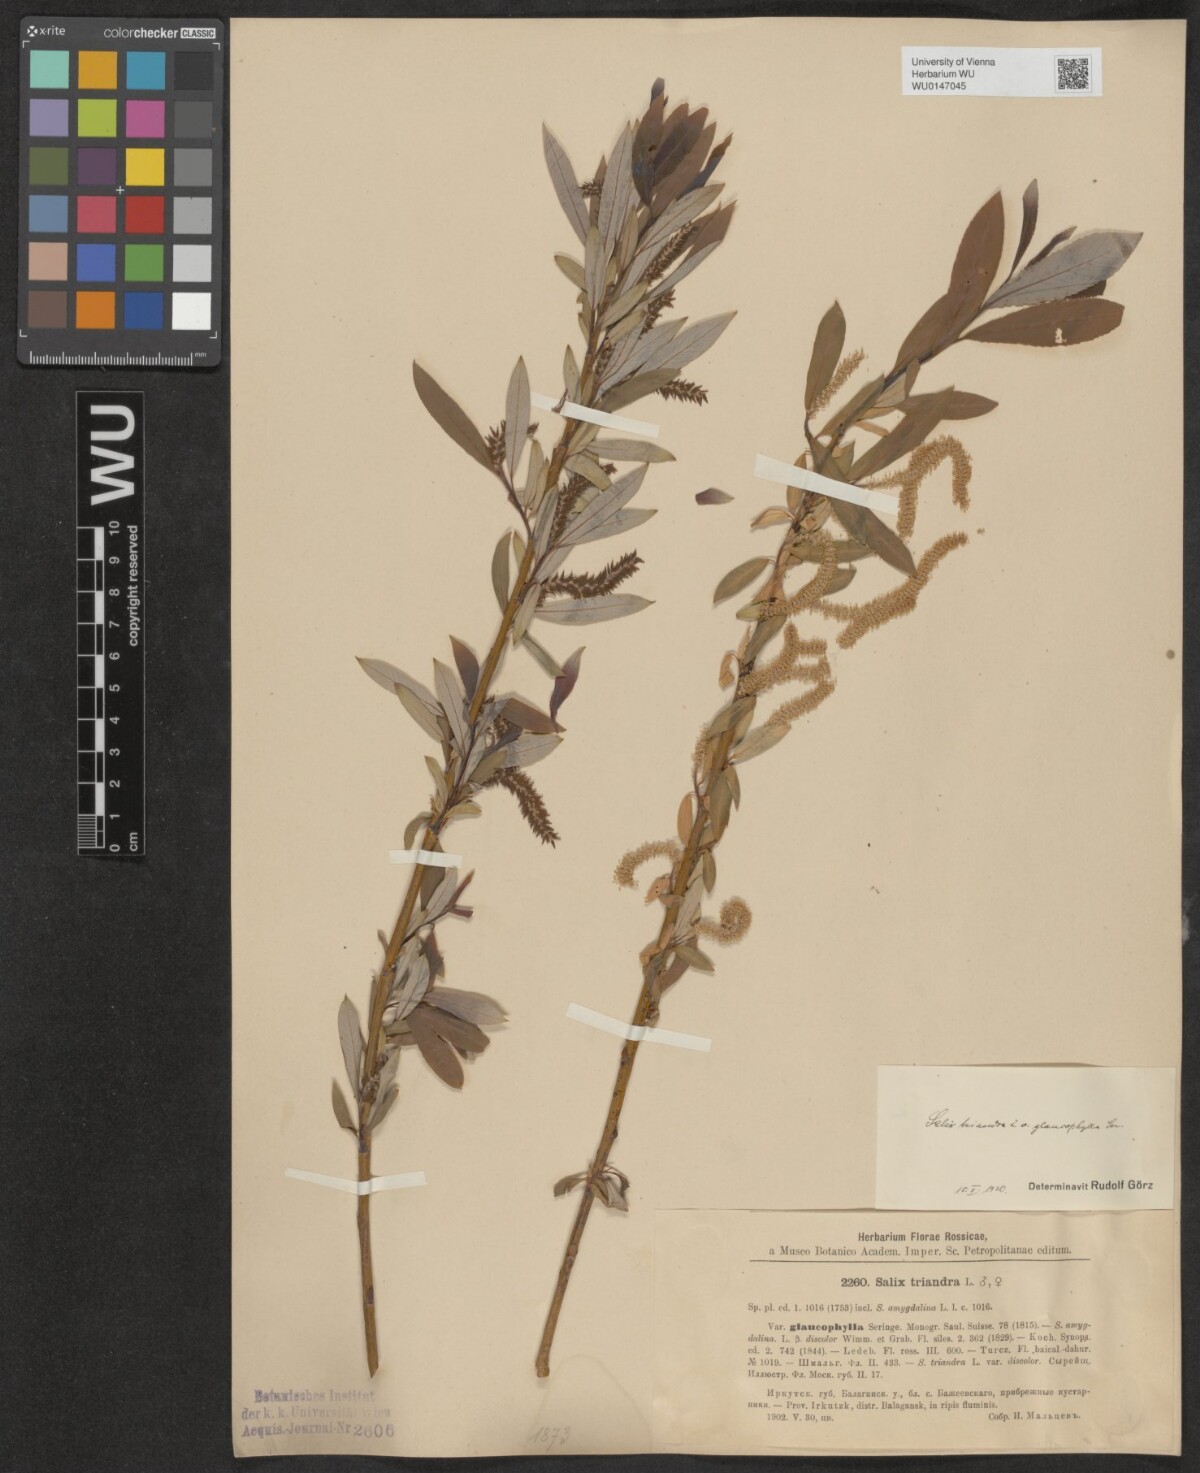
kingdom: Plantae
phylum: Tracheophyta
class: Magnoliopsida
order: Malpighiales
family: Salicaceae
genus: Salix
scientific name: Salix triandra
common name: Almond willow
